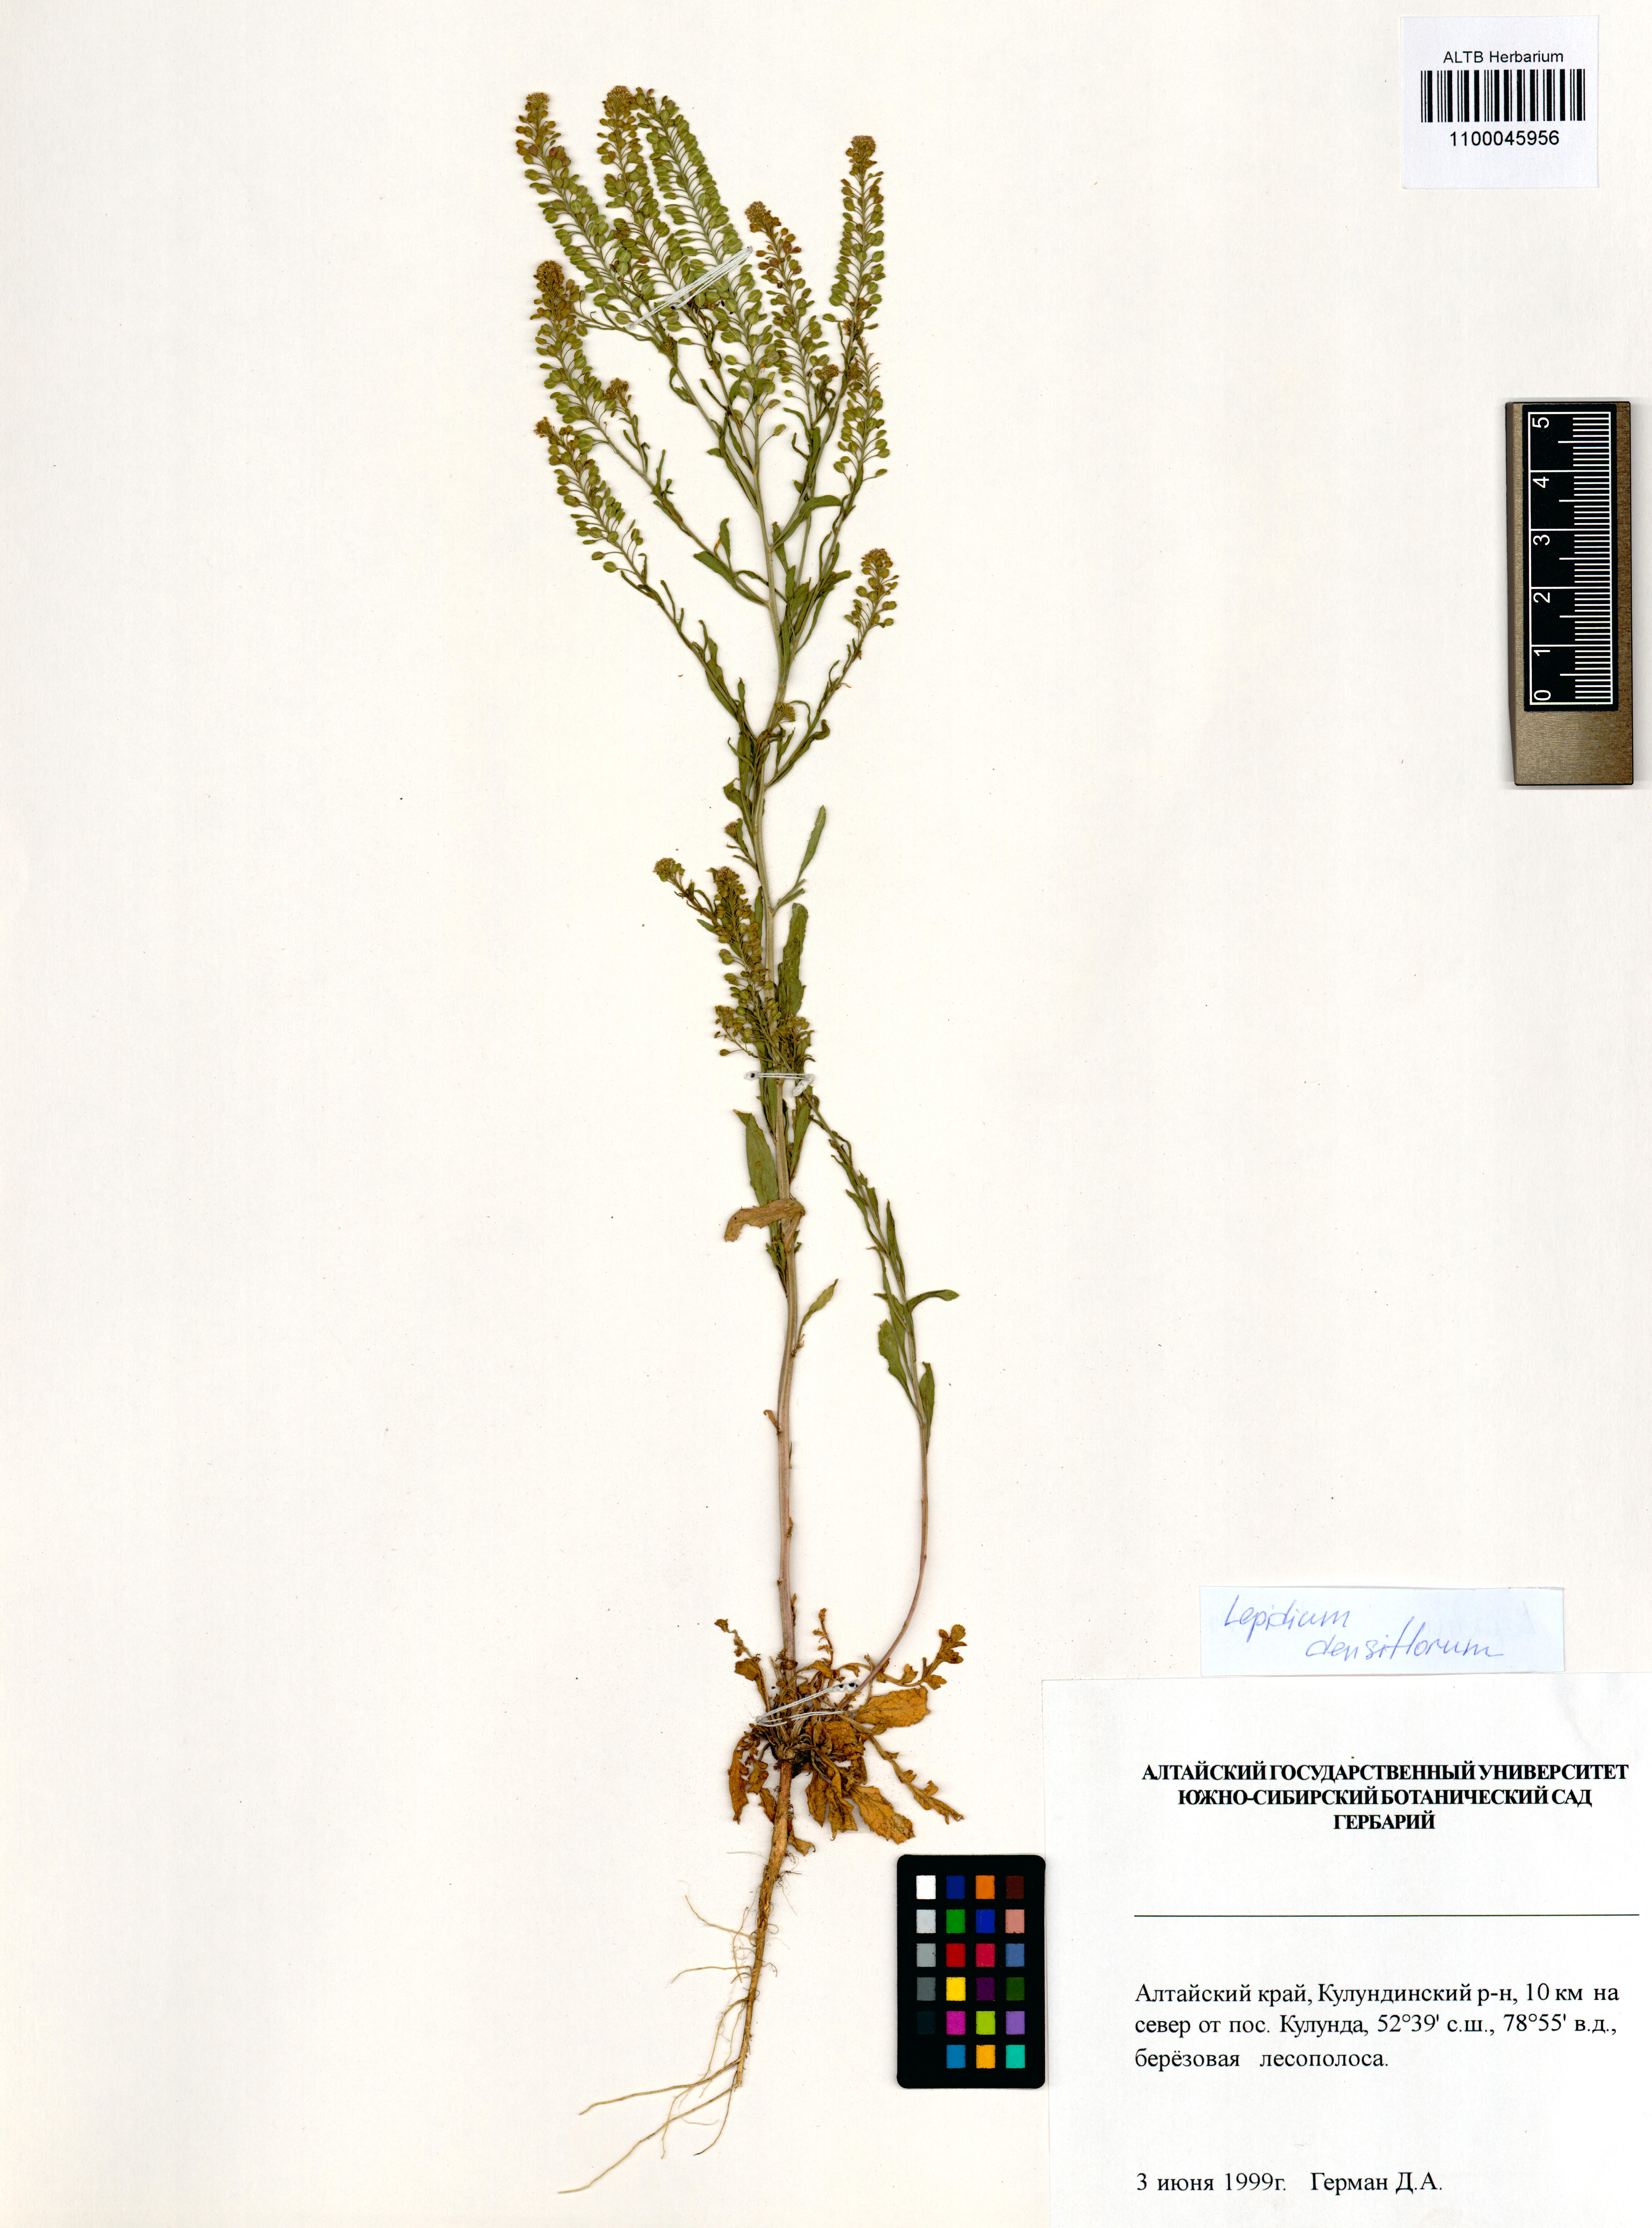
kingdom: Plantae
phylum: Tracheophyta
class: Magnoliopsida
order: Brassicales
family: Brassicaceae
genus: Lepidium
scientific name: Lepidium densiflorum
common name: Miner's pepperwort
